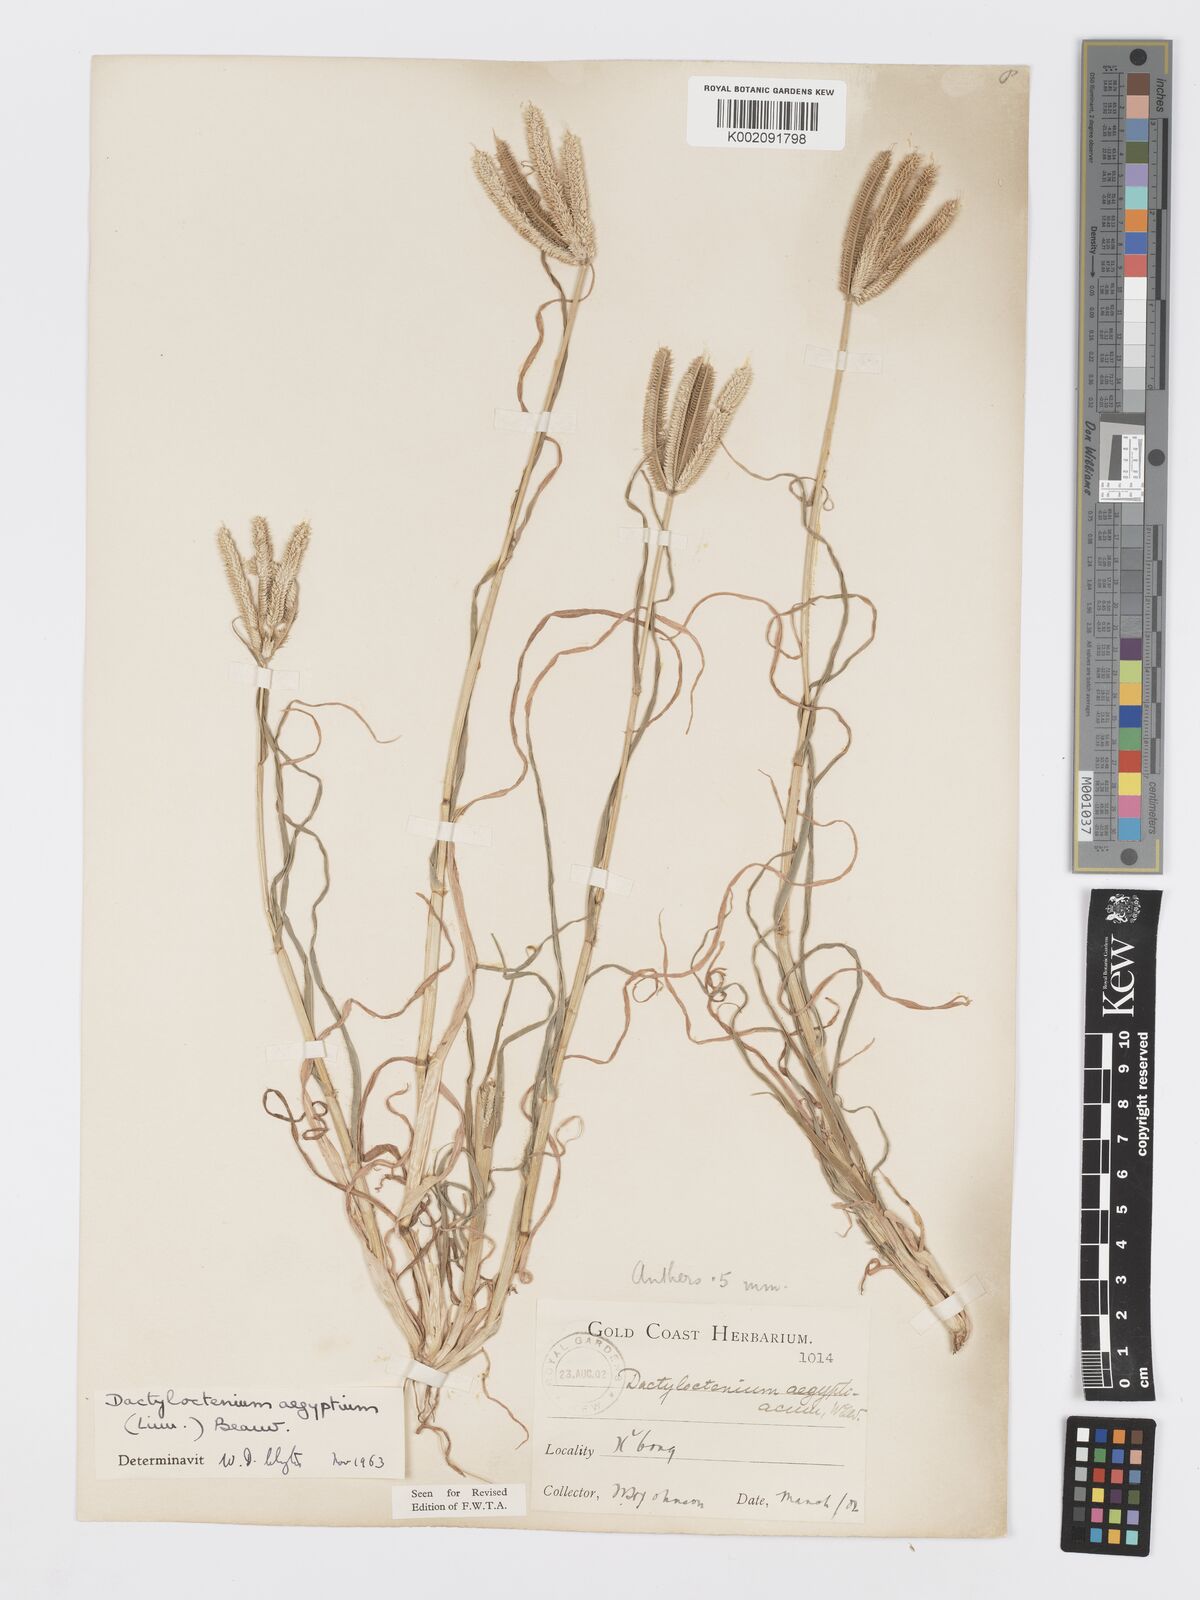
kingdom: Plantae
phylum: Tracheophyta
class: Liliopsida
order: Poales
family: Poaceae
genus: Dactyloctenium
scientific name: Dactyloctenium aegyptium
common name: Egyptian grass
